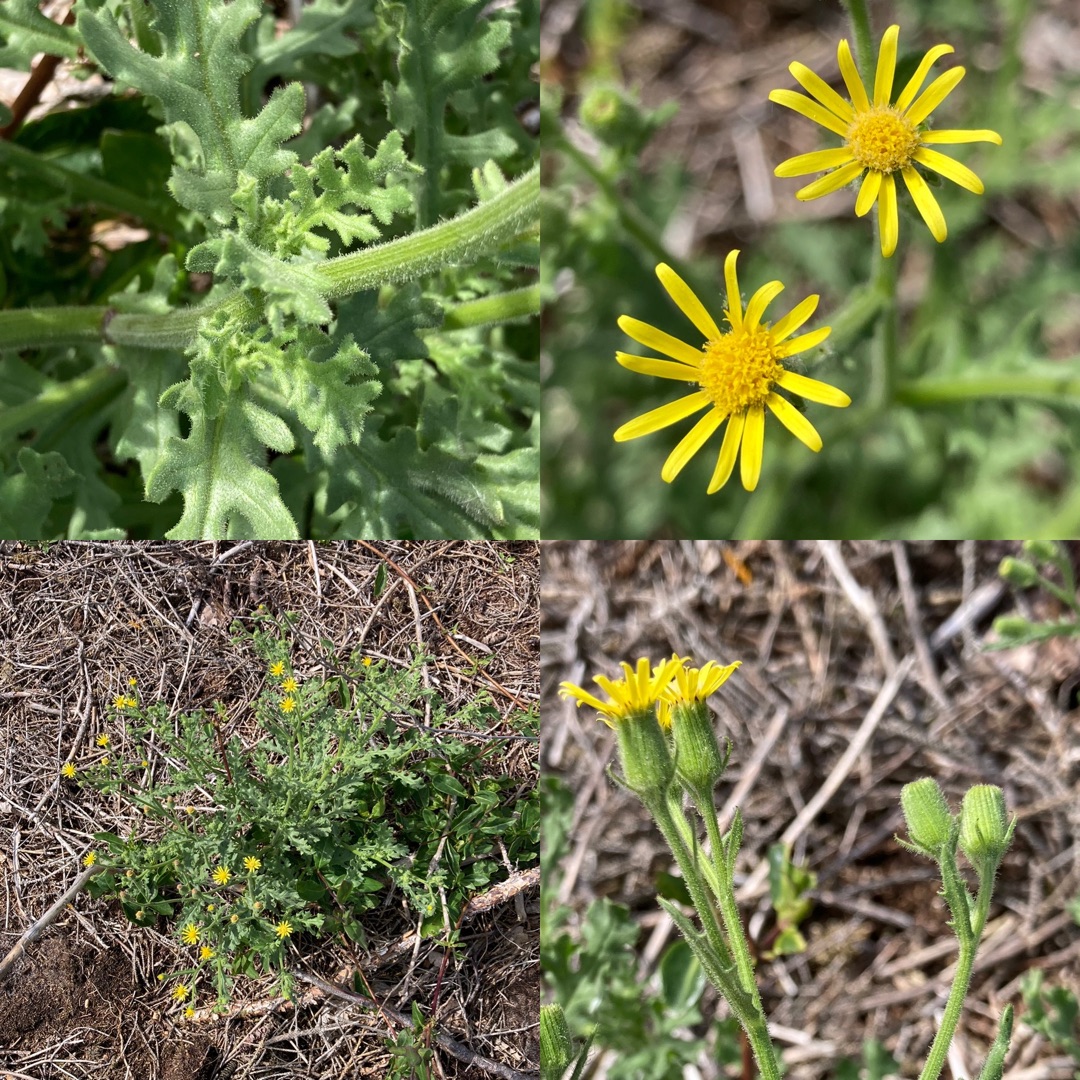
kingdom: Plantae
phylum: Tracheophyta
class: Magnoliopsida
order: Asterales
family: Asteraceae
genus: Senecio
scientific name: Senecio viscosus
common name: Klæbrig brandbæger
